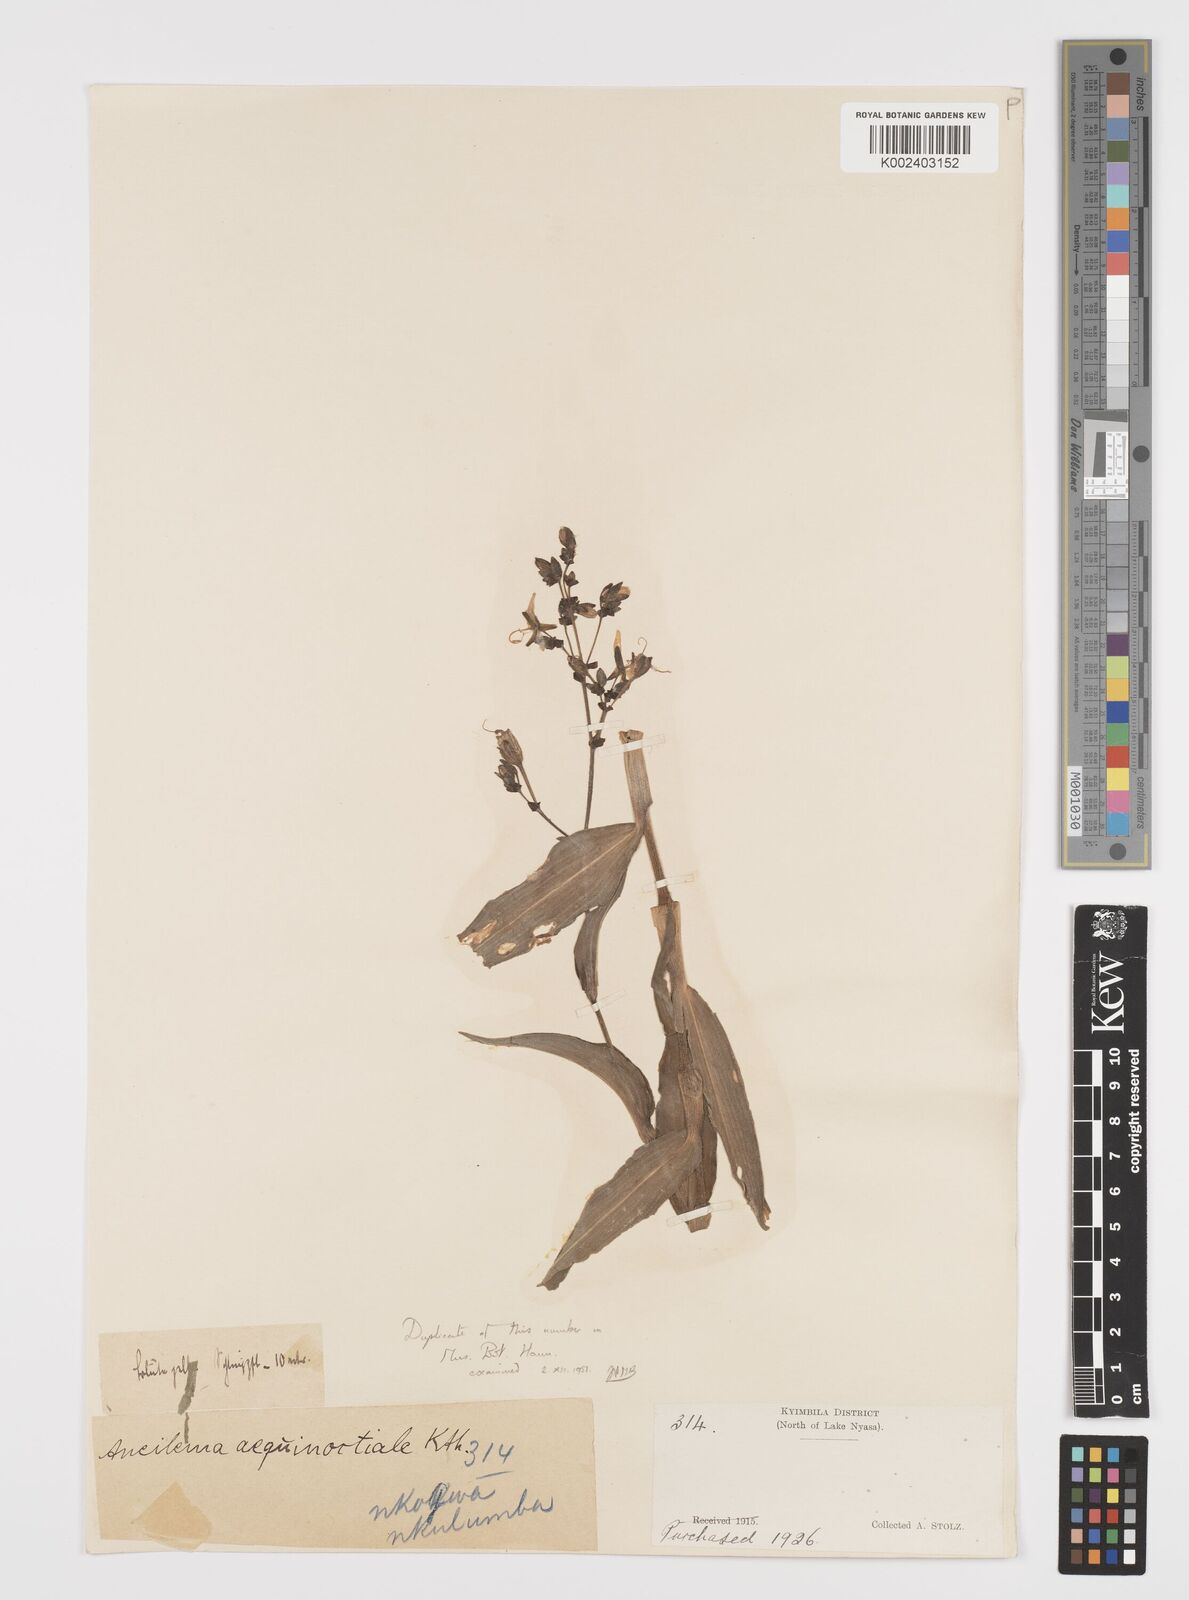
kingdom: Plantae
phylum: Tracheophyta
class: Liliopsida
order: Commelinales
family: Commelinaceae
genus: Aneilema
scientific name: Aneilema aequinoctiale
